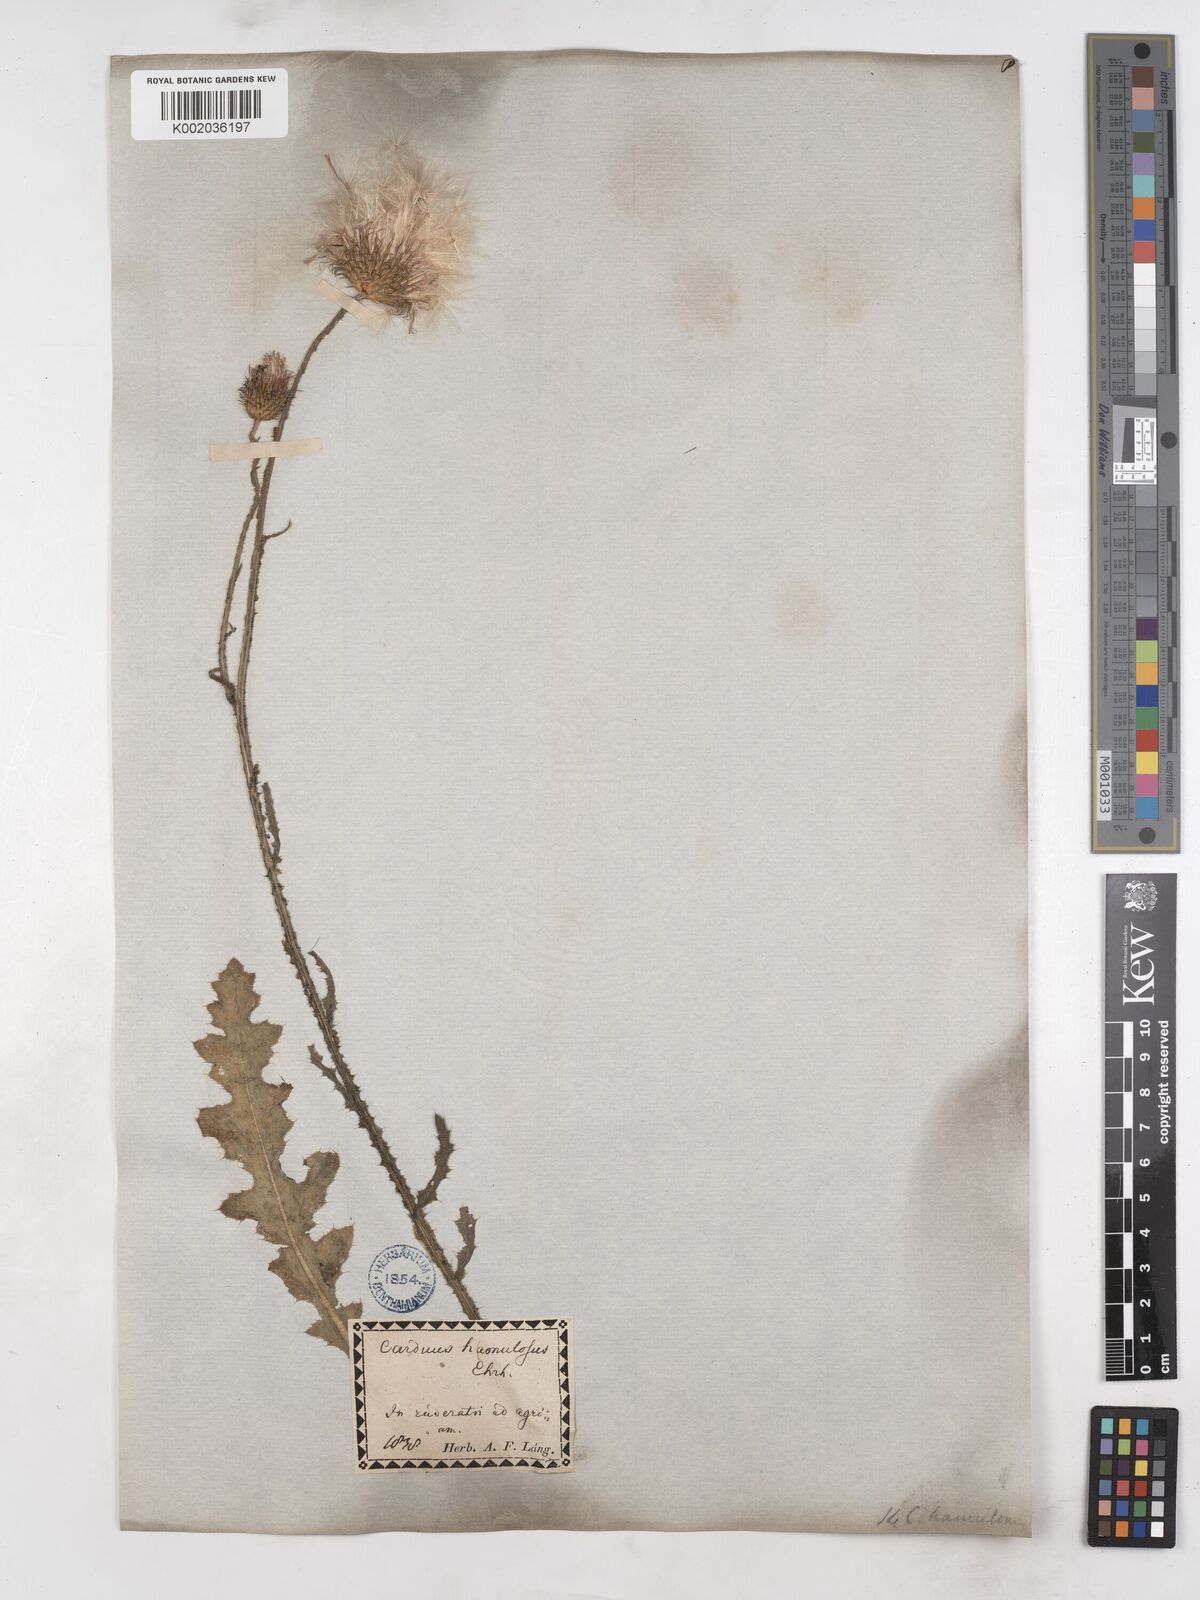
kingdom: Plantae
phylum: Tracheophyta
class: Magnoliopsida
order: Asterales
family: Asteraceae
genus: Carduus
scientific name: Carduus hamulosus
